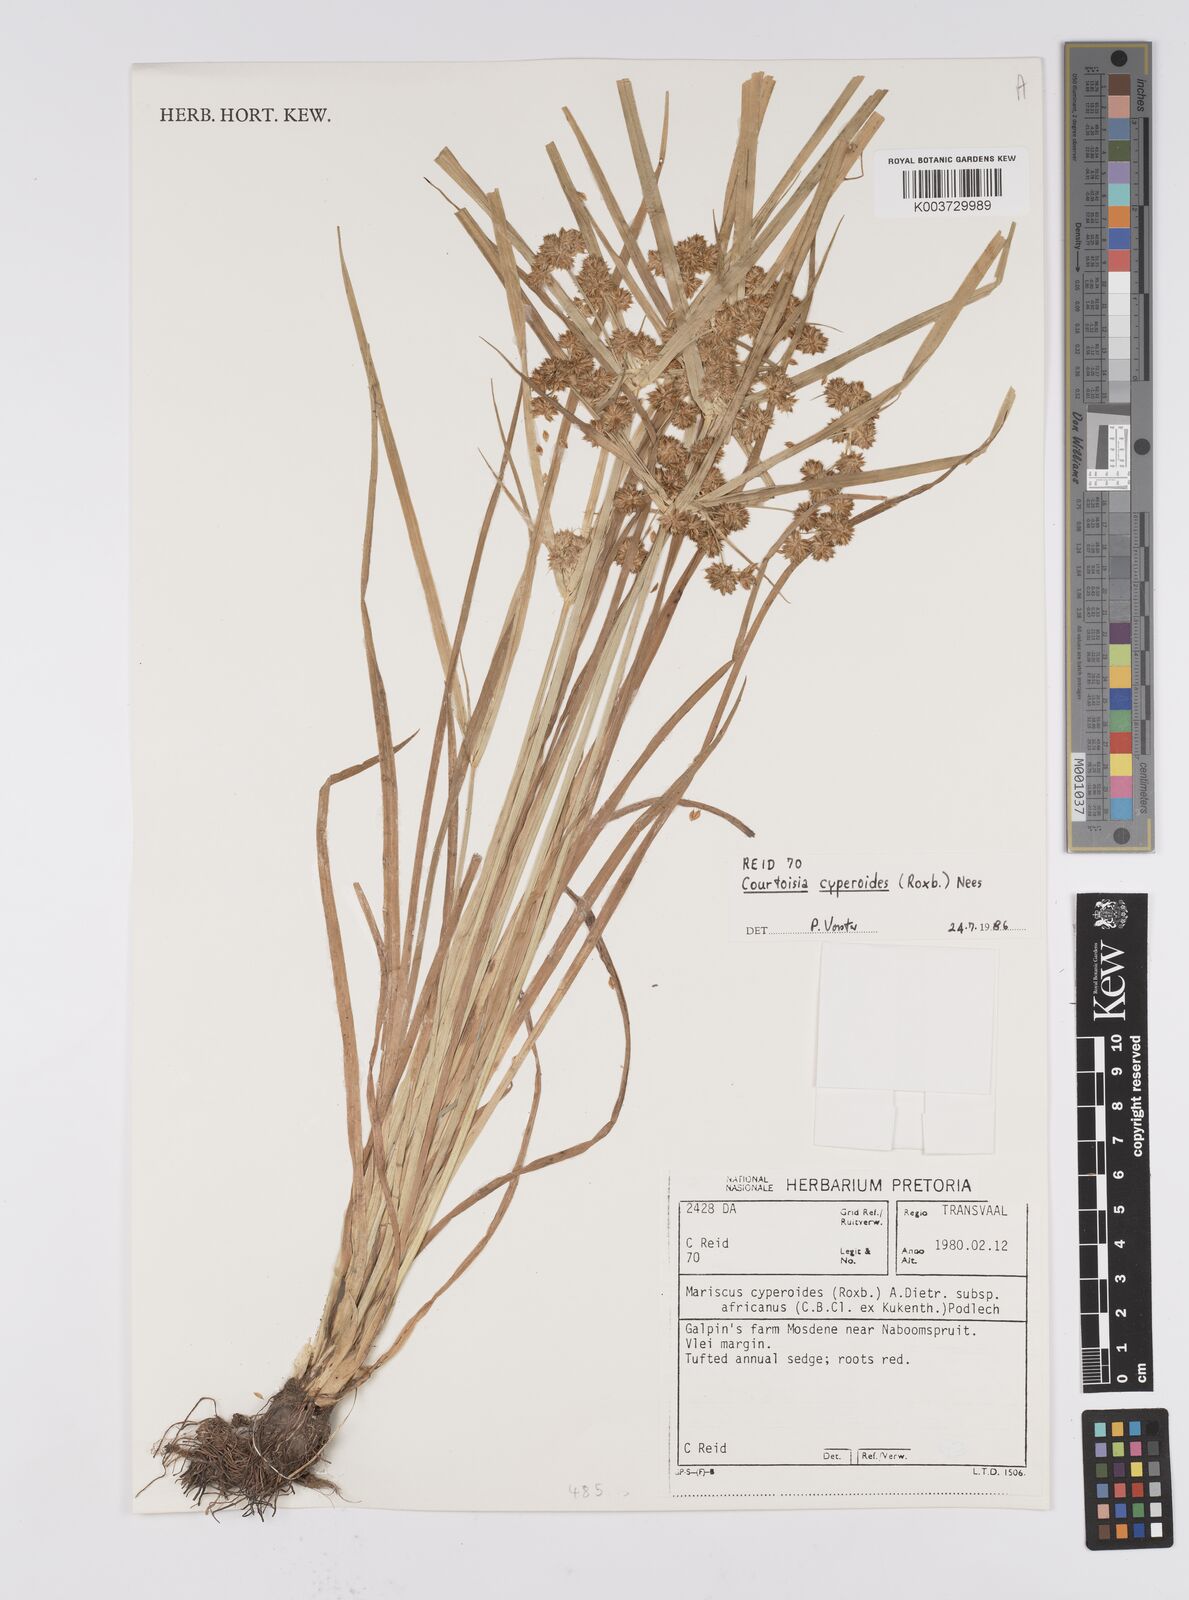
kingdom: Plantae
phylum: Tracheophyta
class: Liliopsida
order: Poales
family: Cyperaceae
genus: Cyperus
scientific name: Cyperus cyperoides
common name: Pacific island flat sedge
